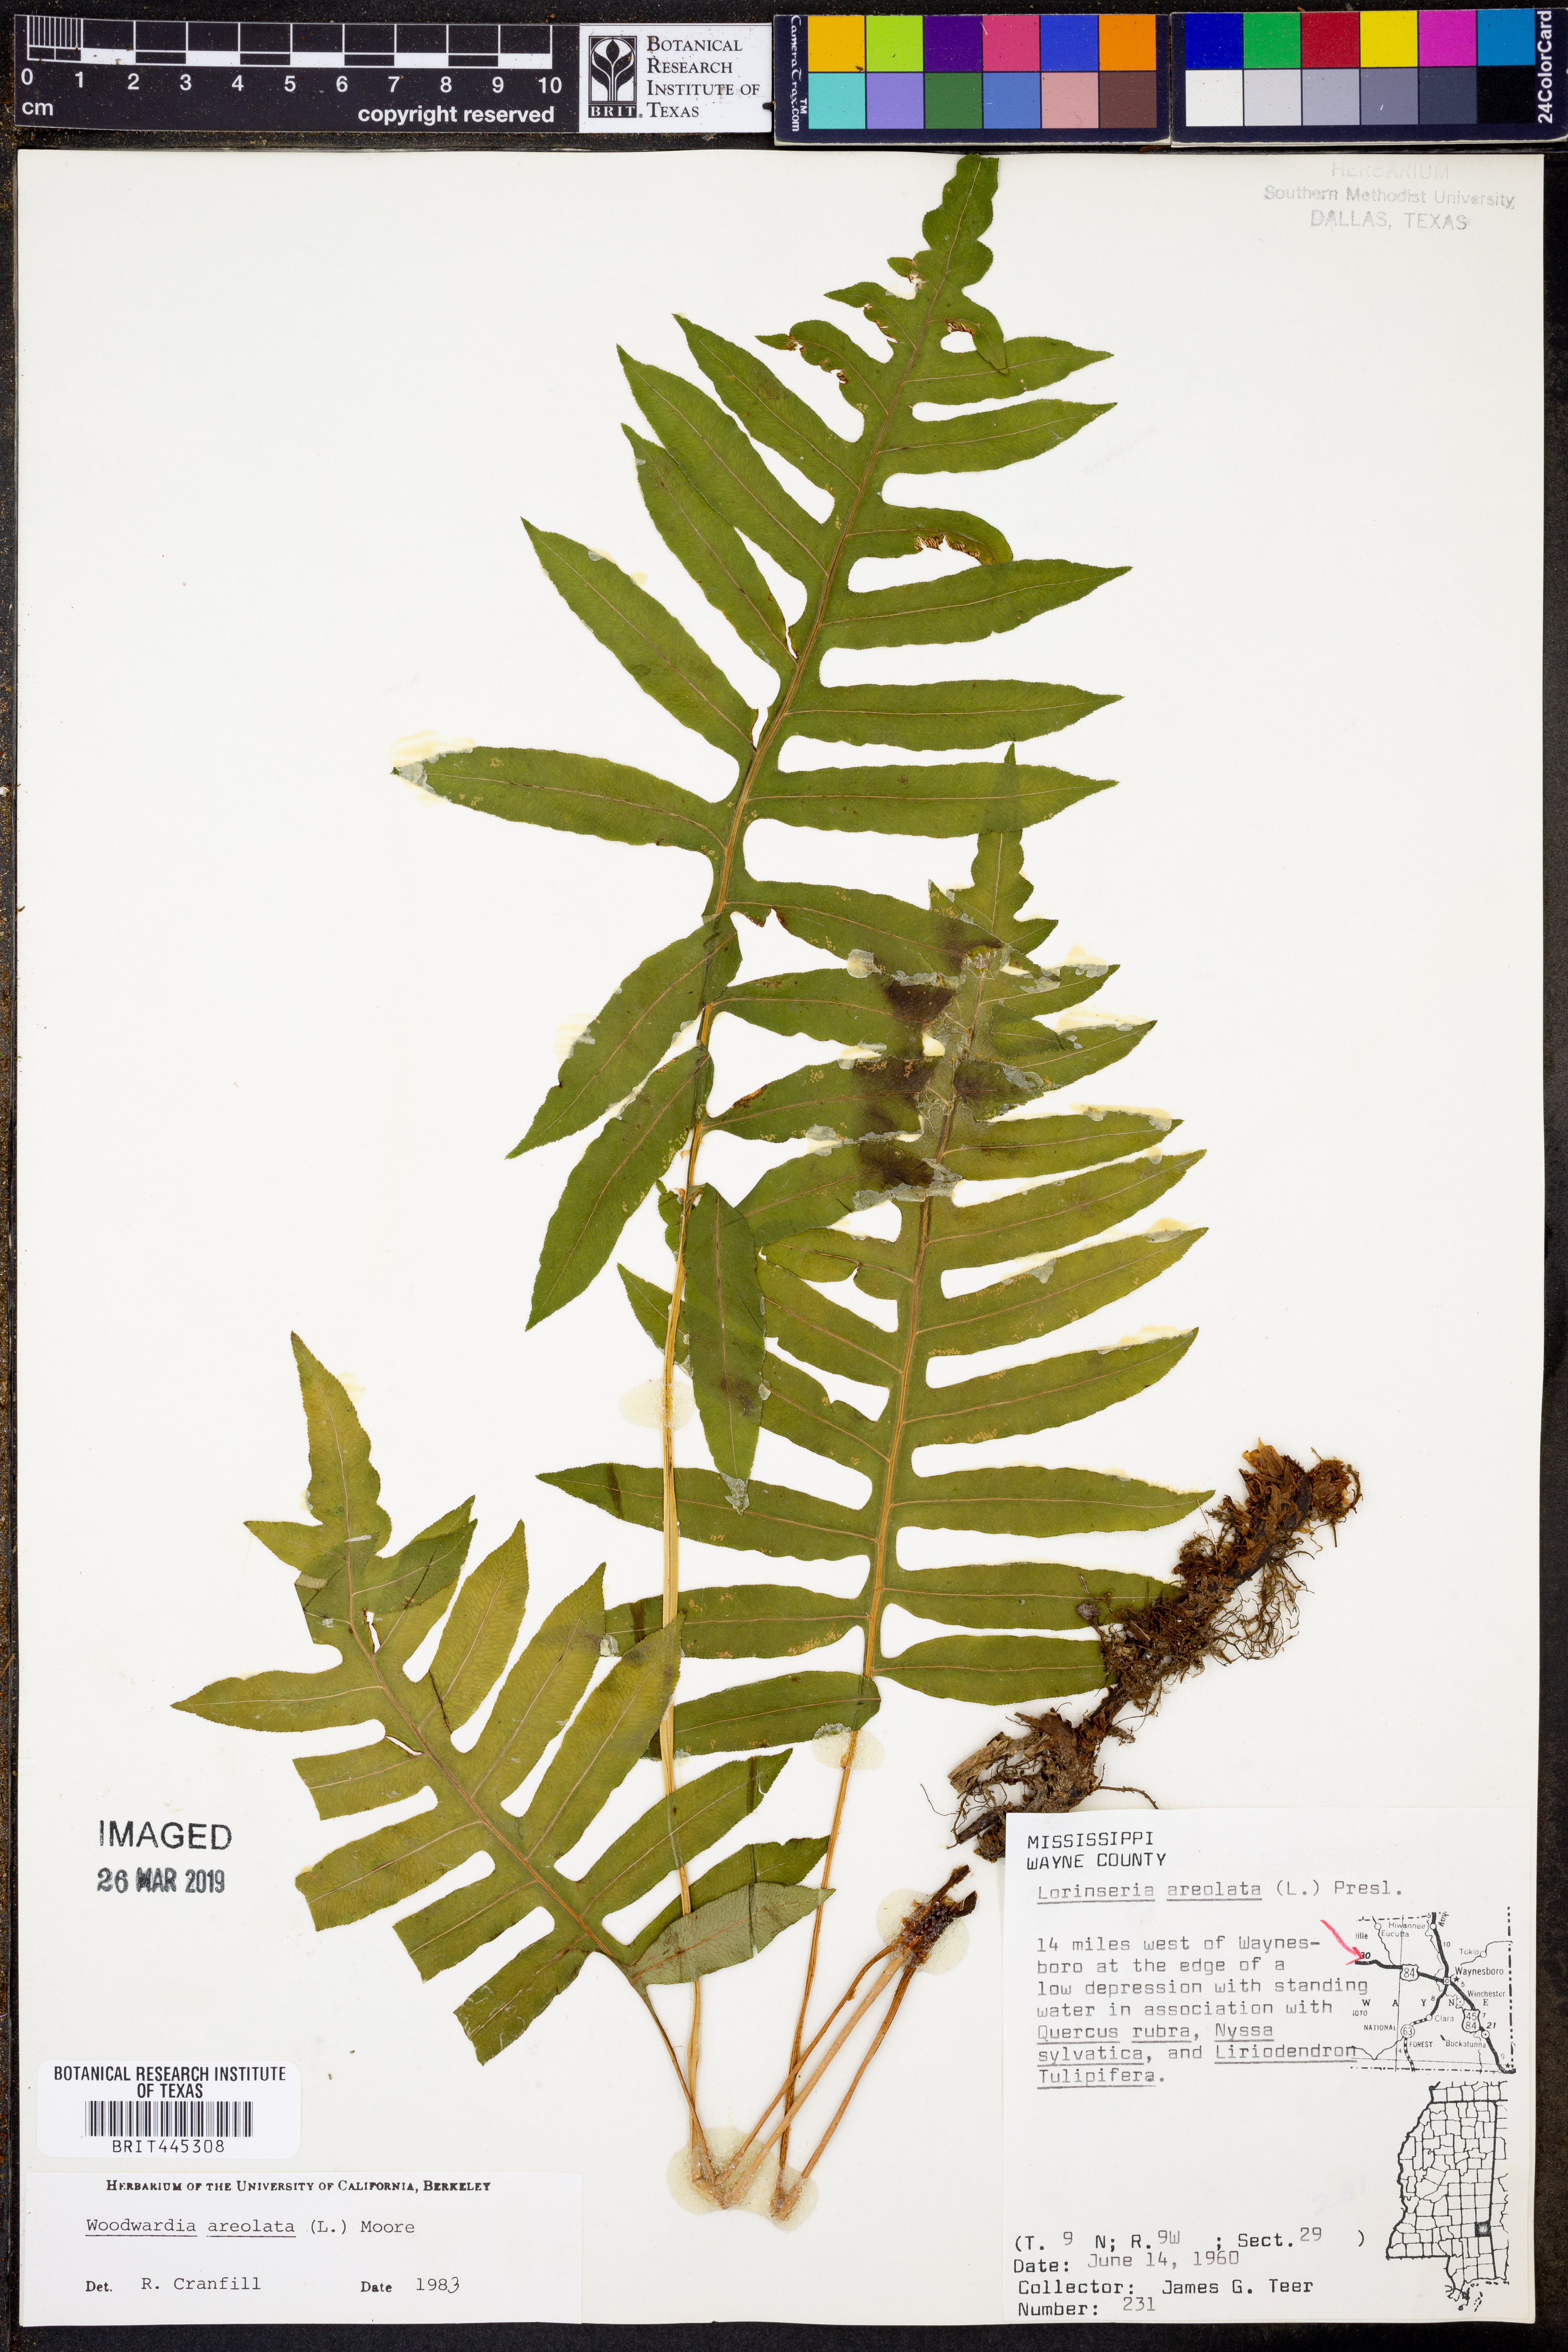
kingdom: Plantae
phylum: Tracheophyta
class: Polypodiopsida
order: Polypodiales
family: Blechnaceae
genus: Lorinseria
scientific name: Lorinseria areolata
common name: Dwarf chain fern
